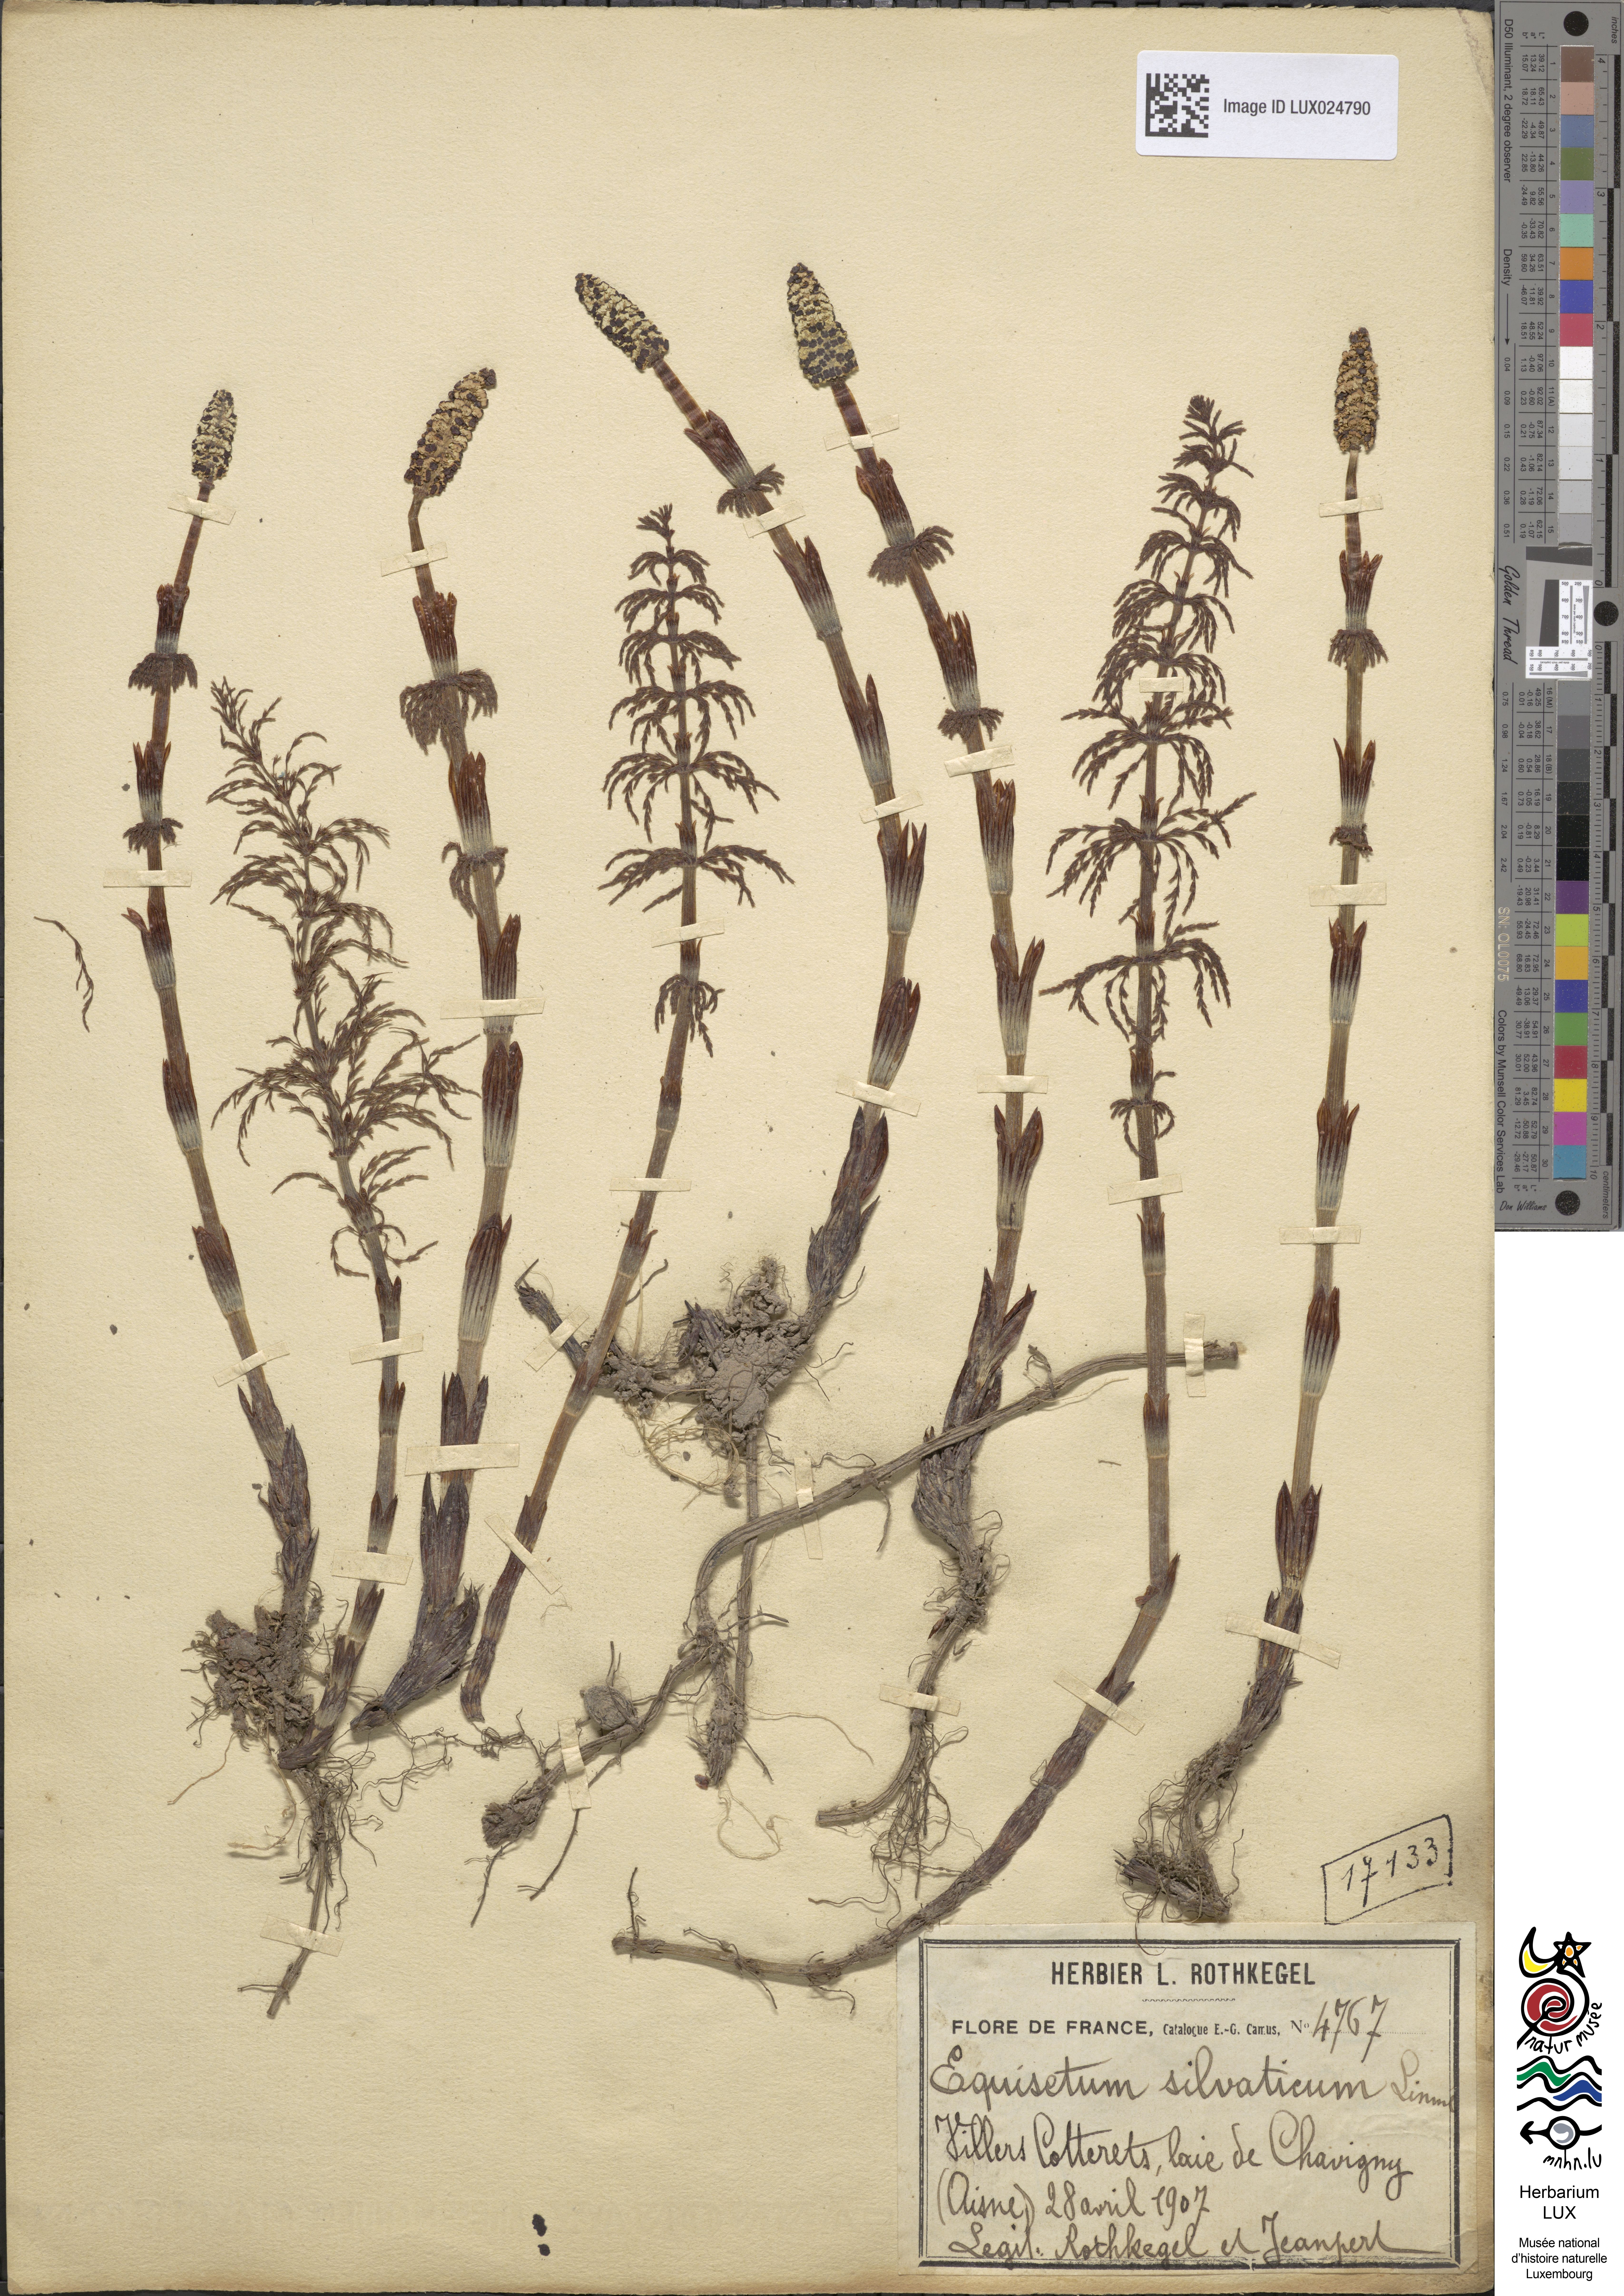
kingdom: Plantae
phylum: Tracheophyta
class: Polypodiopsida
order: Equisetales
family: Equisetaceae
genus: Equisetum
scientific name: Equisetum sylvaticum
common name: Wood horsetail
